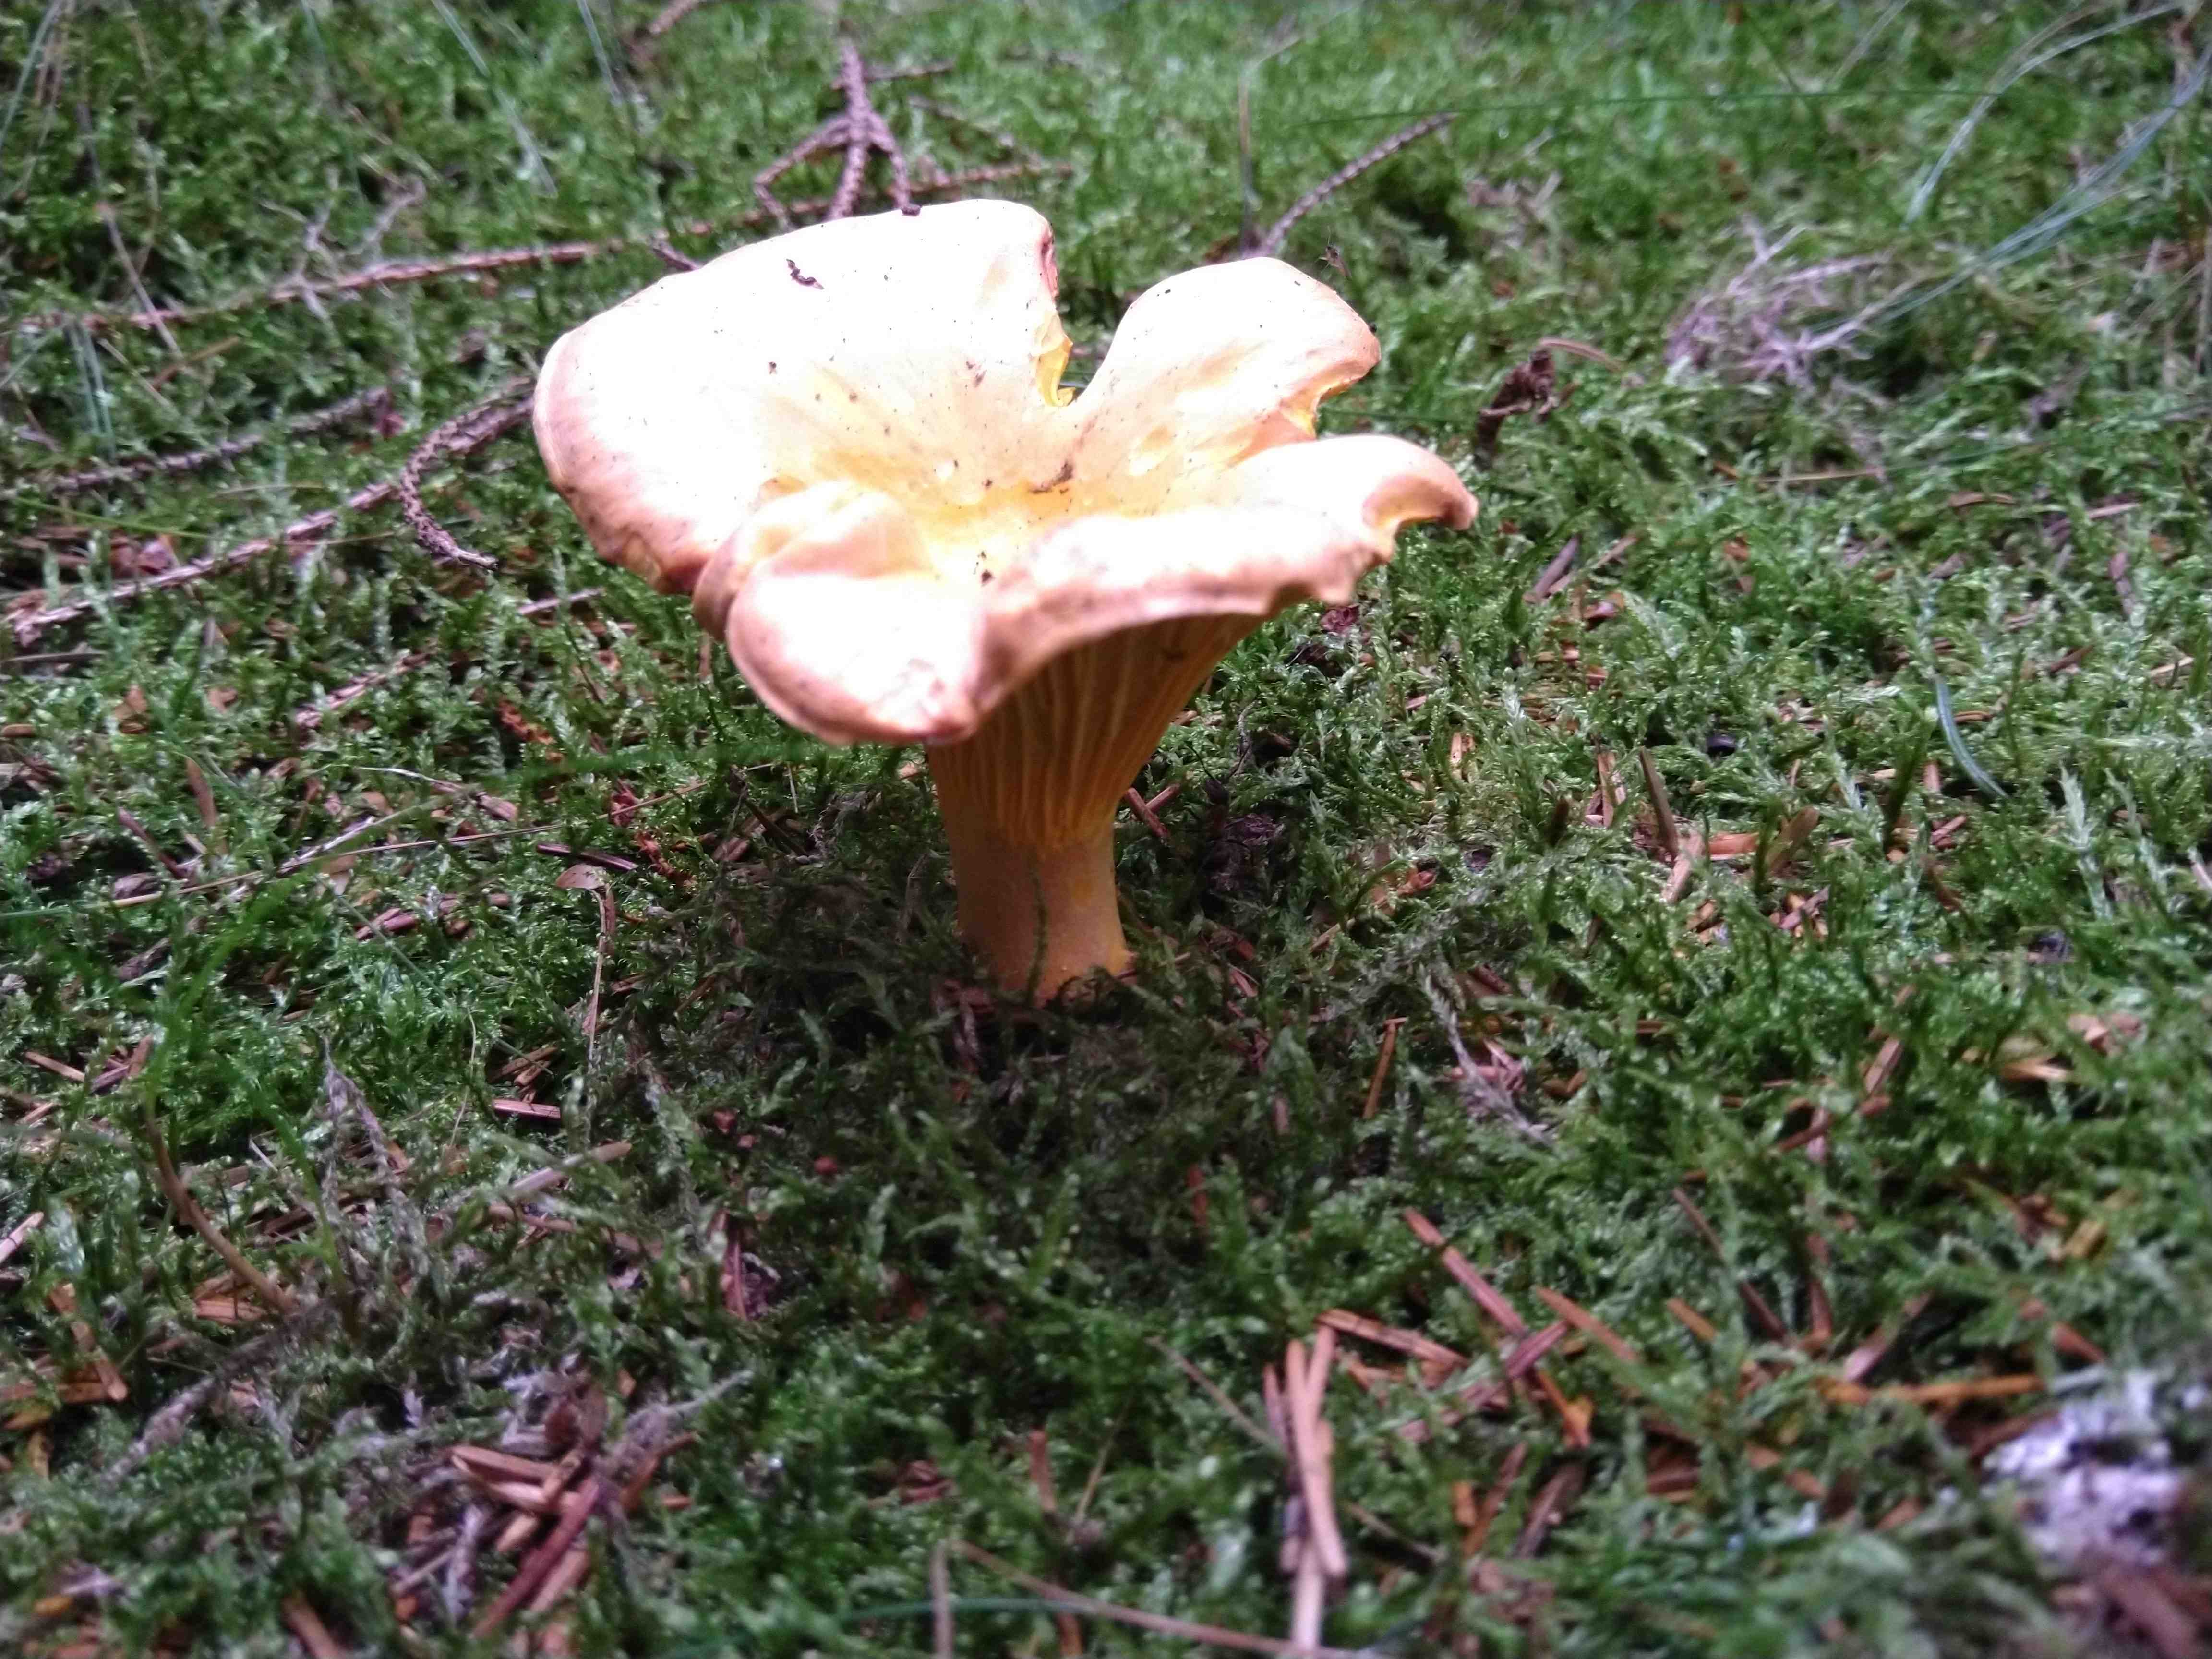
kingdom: Fungi
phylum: Basidiomycota
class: Agaricomycetes
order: Cantharellales
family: Hydnaceae
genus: Cantharellus
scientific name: Cantharellus cibarius
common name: almindelig kantarel
